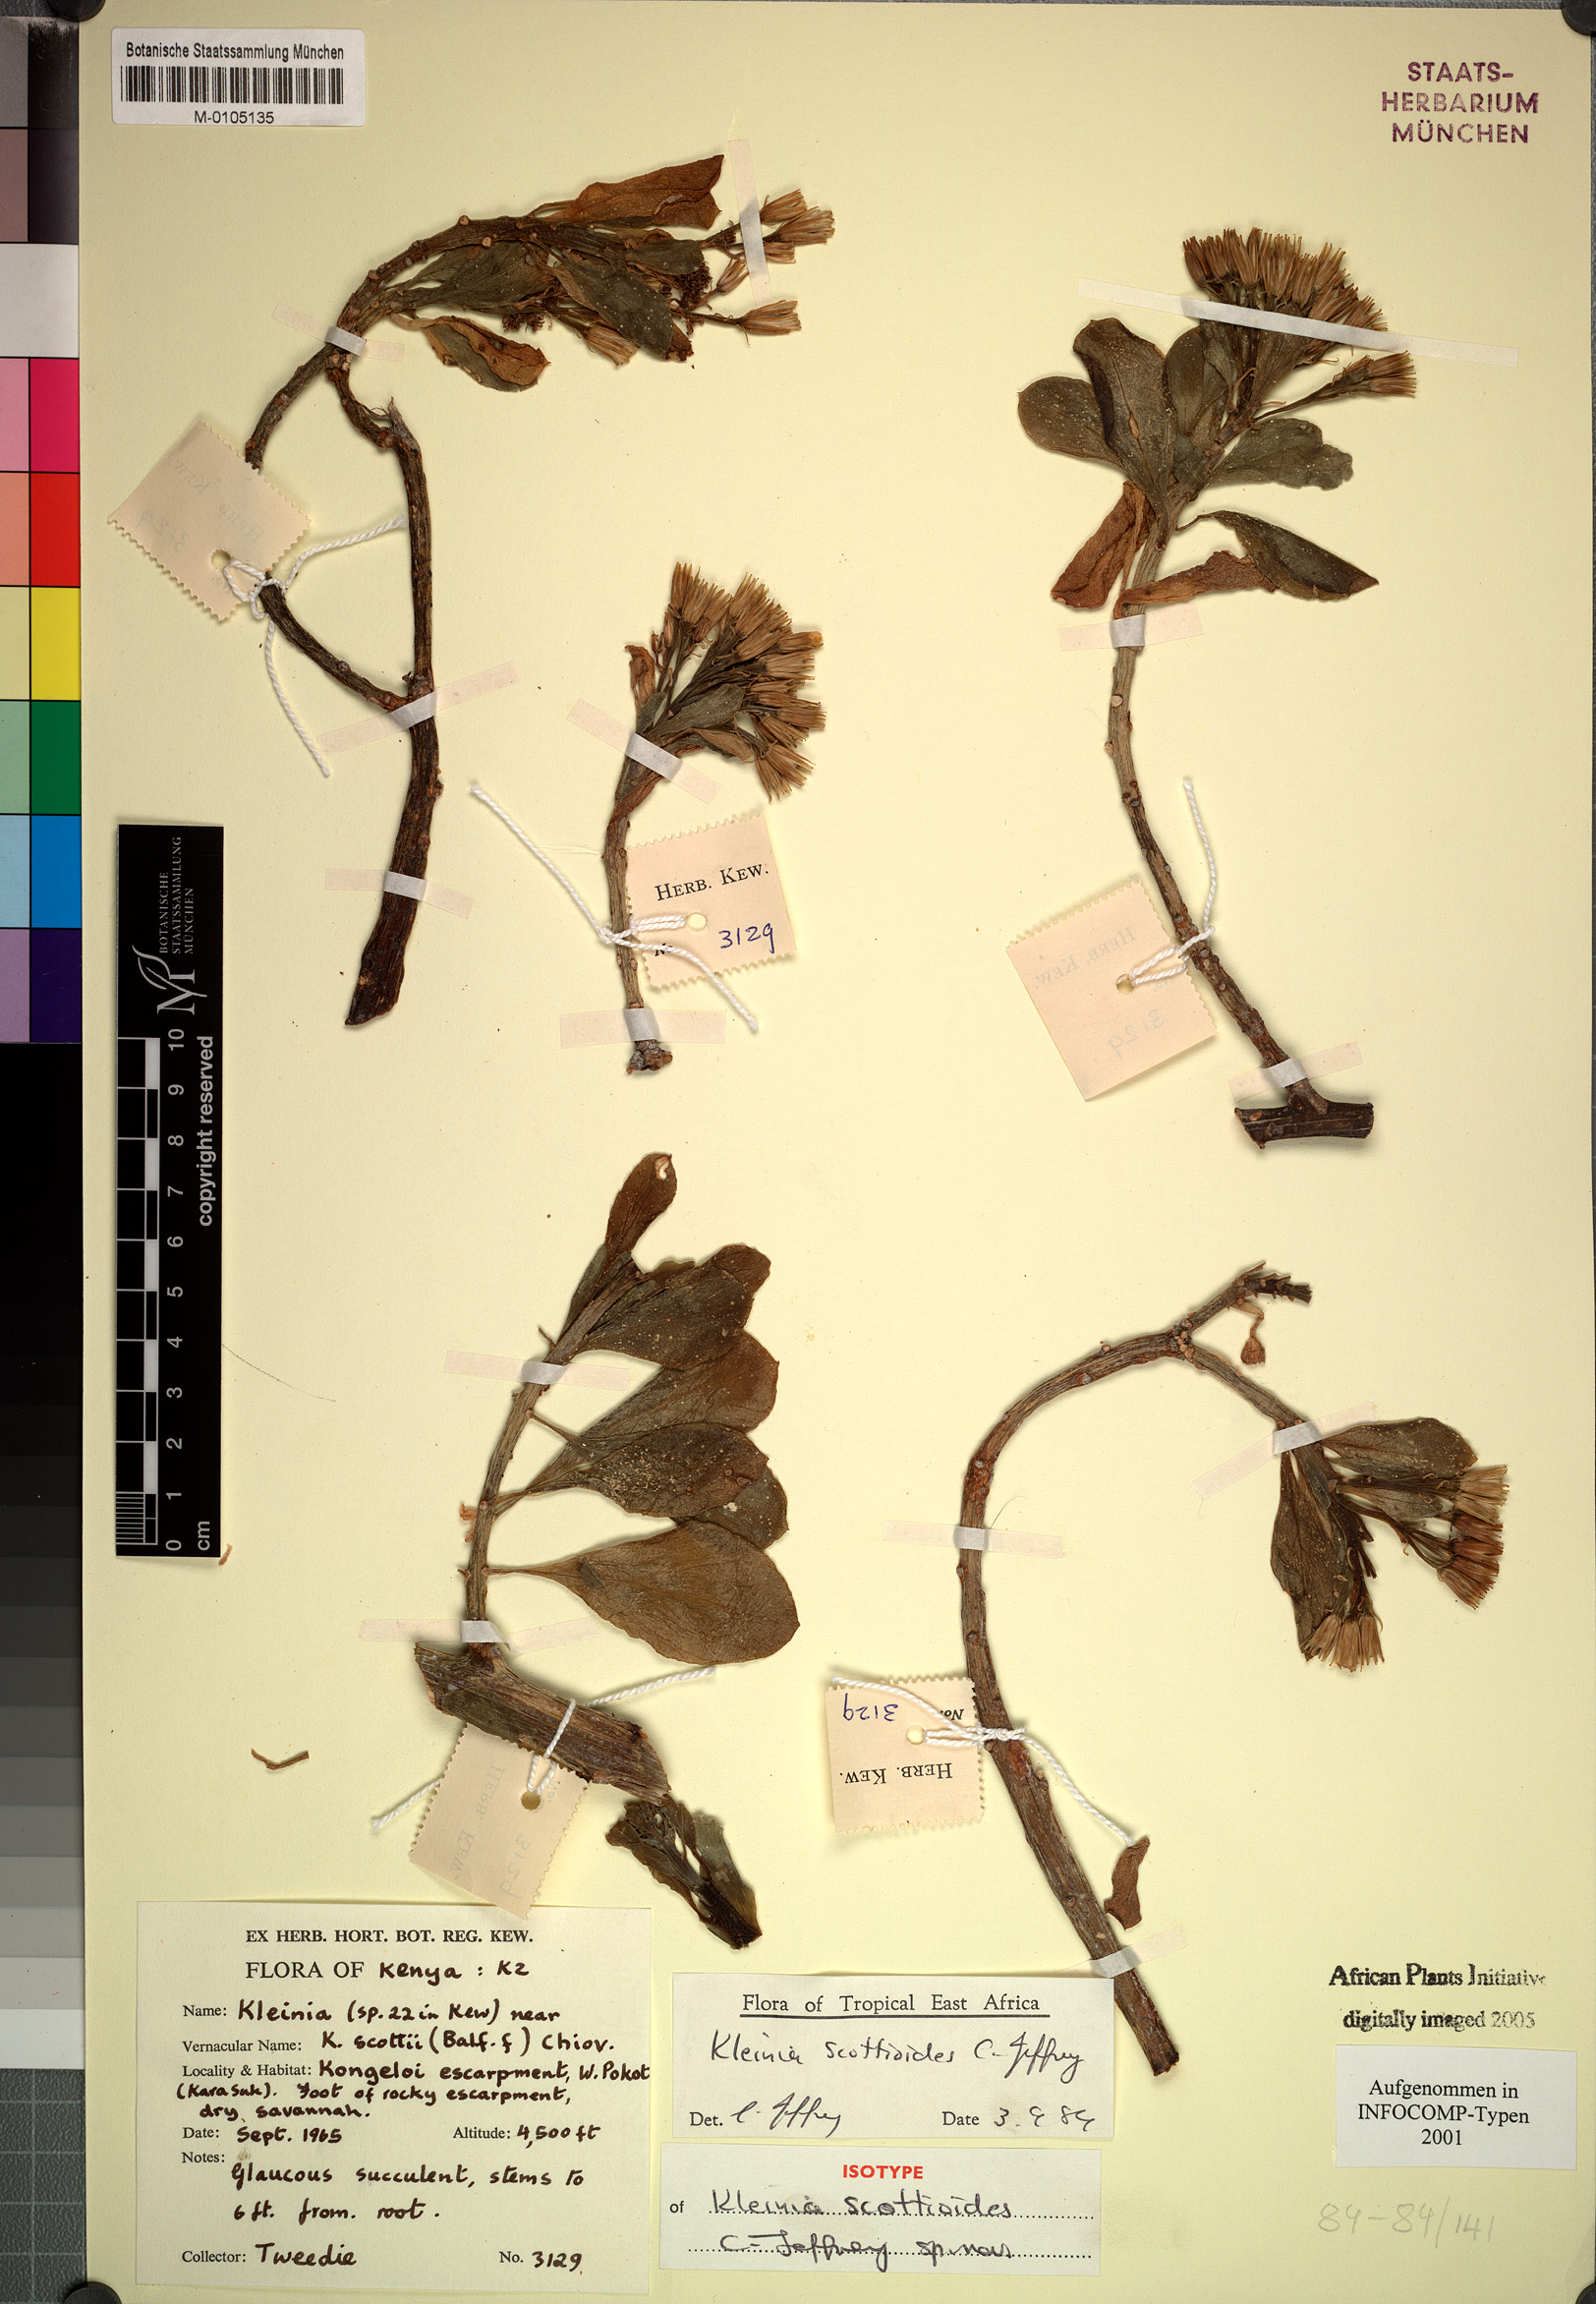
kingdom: Plantae
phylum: Tracheophyta
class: Magnoliopsida
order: Asterales
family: Asteraceae
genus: Curio
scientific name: Curio avasimontanus
